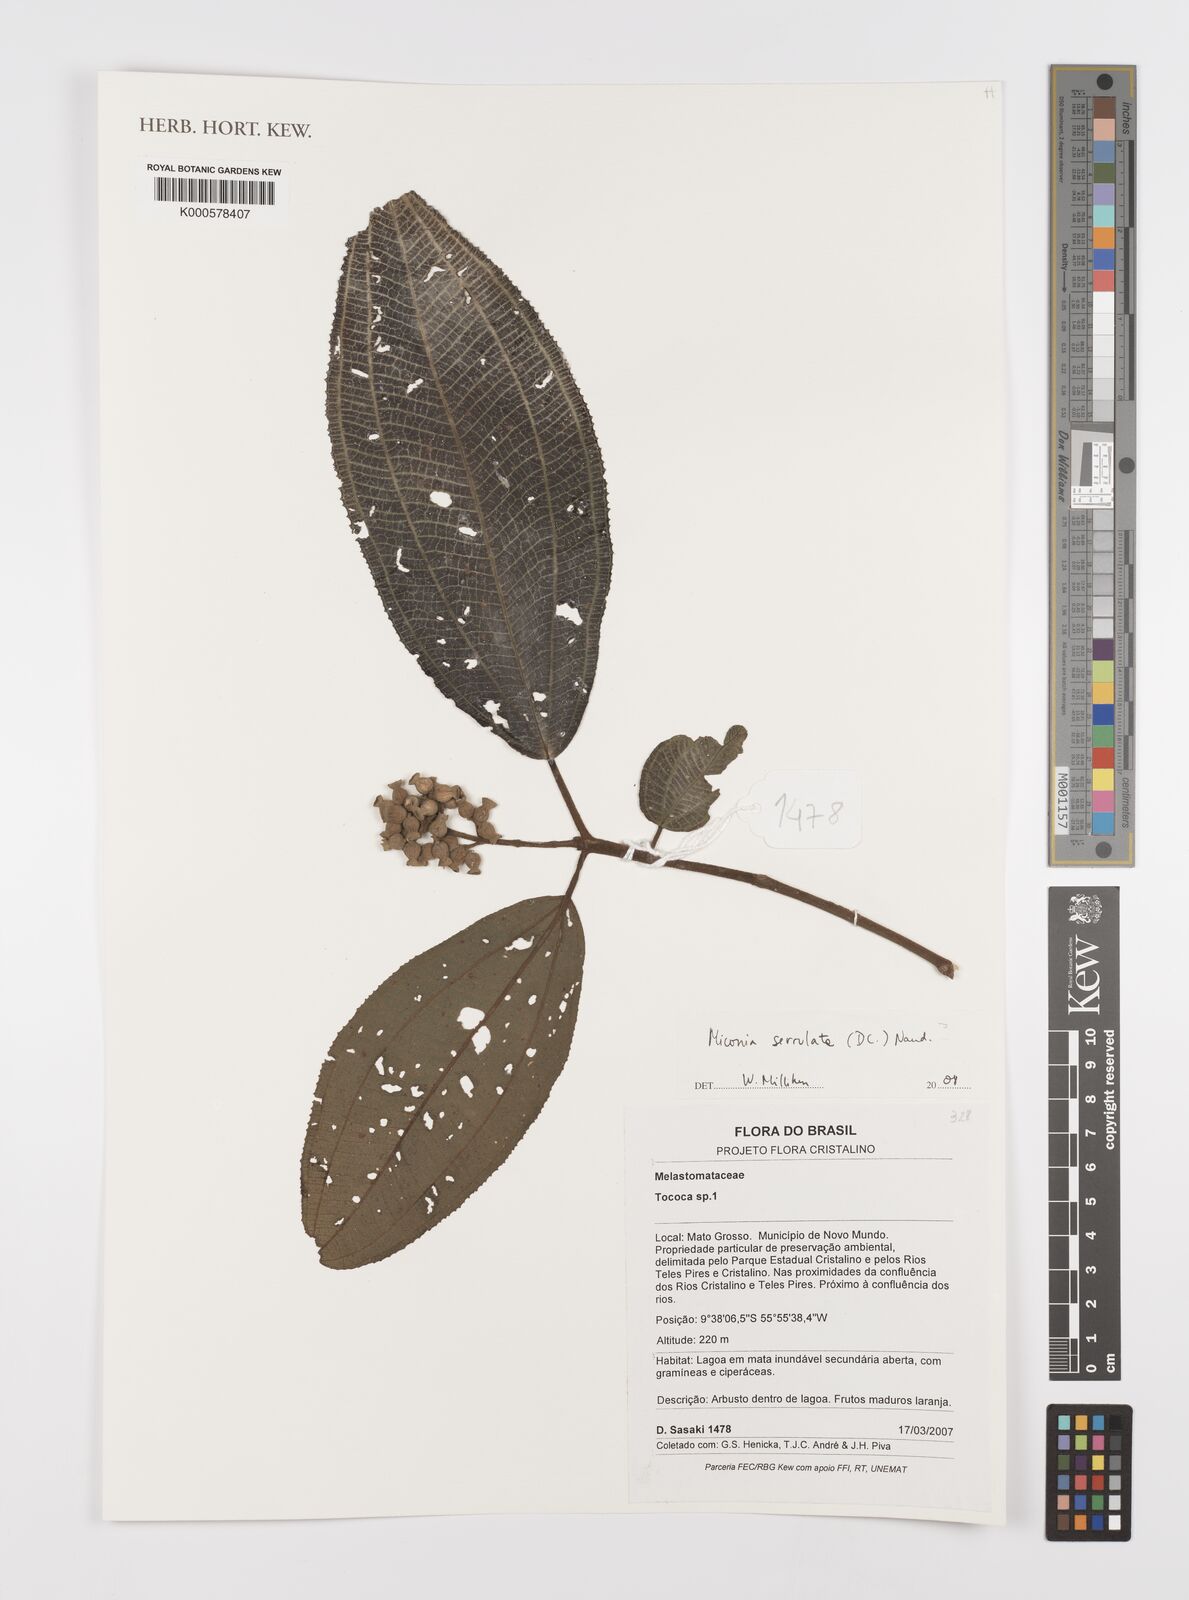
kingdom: Plantae
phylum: Tracheophyta
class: Magnoliopsida
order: Myrtales
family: Melastomataceae
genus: Miconia
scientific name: Miconia serrulata
